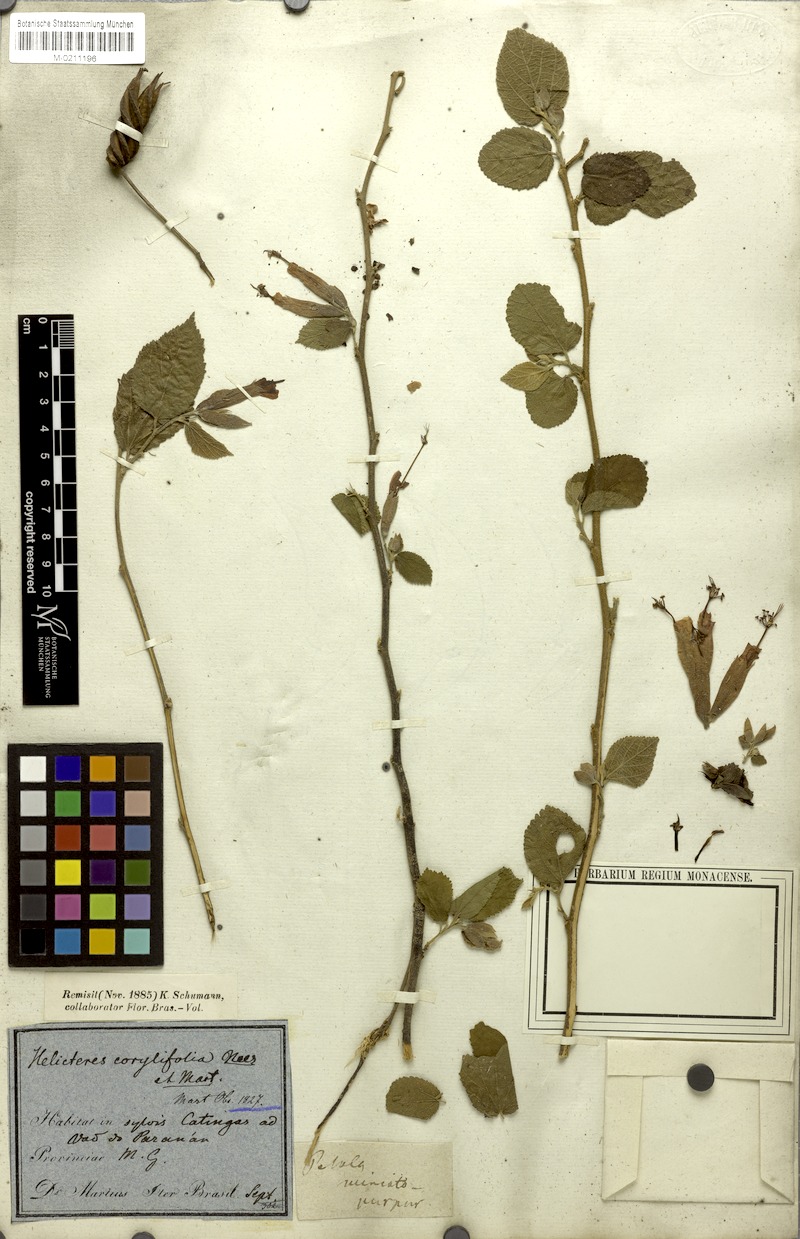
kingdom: Plantae
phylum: Tracheophyta
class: Magnoliopsida
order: Malvales
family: Malvaceae
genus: Helicteres
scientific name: Helicteres corylifolia
